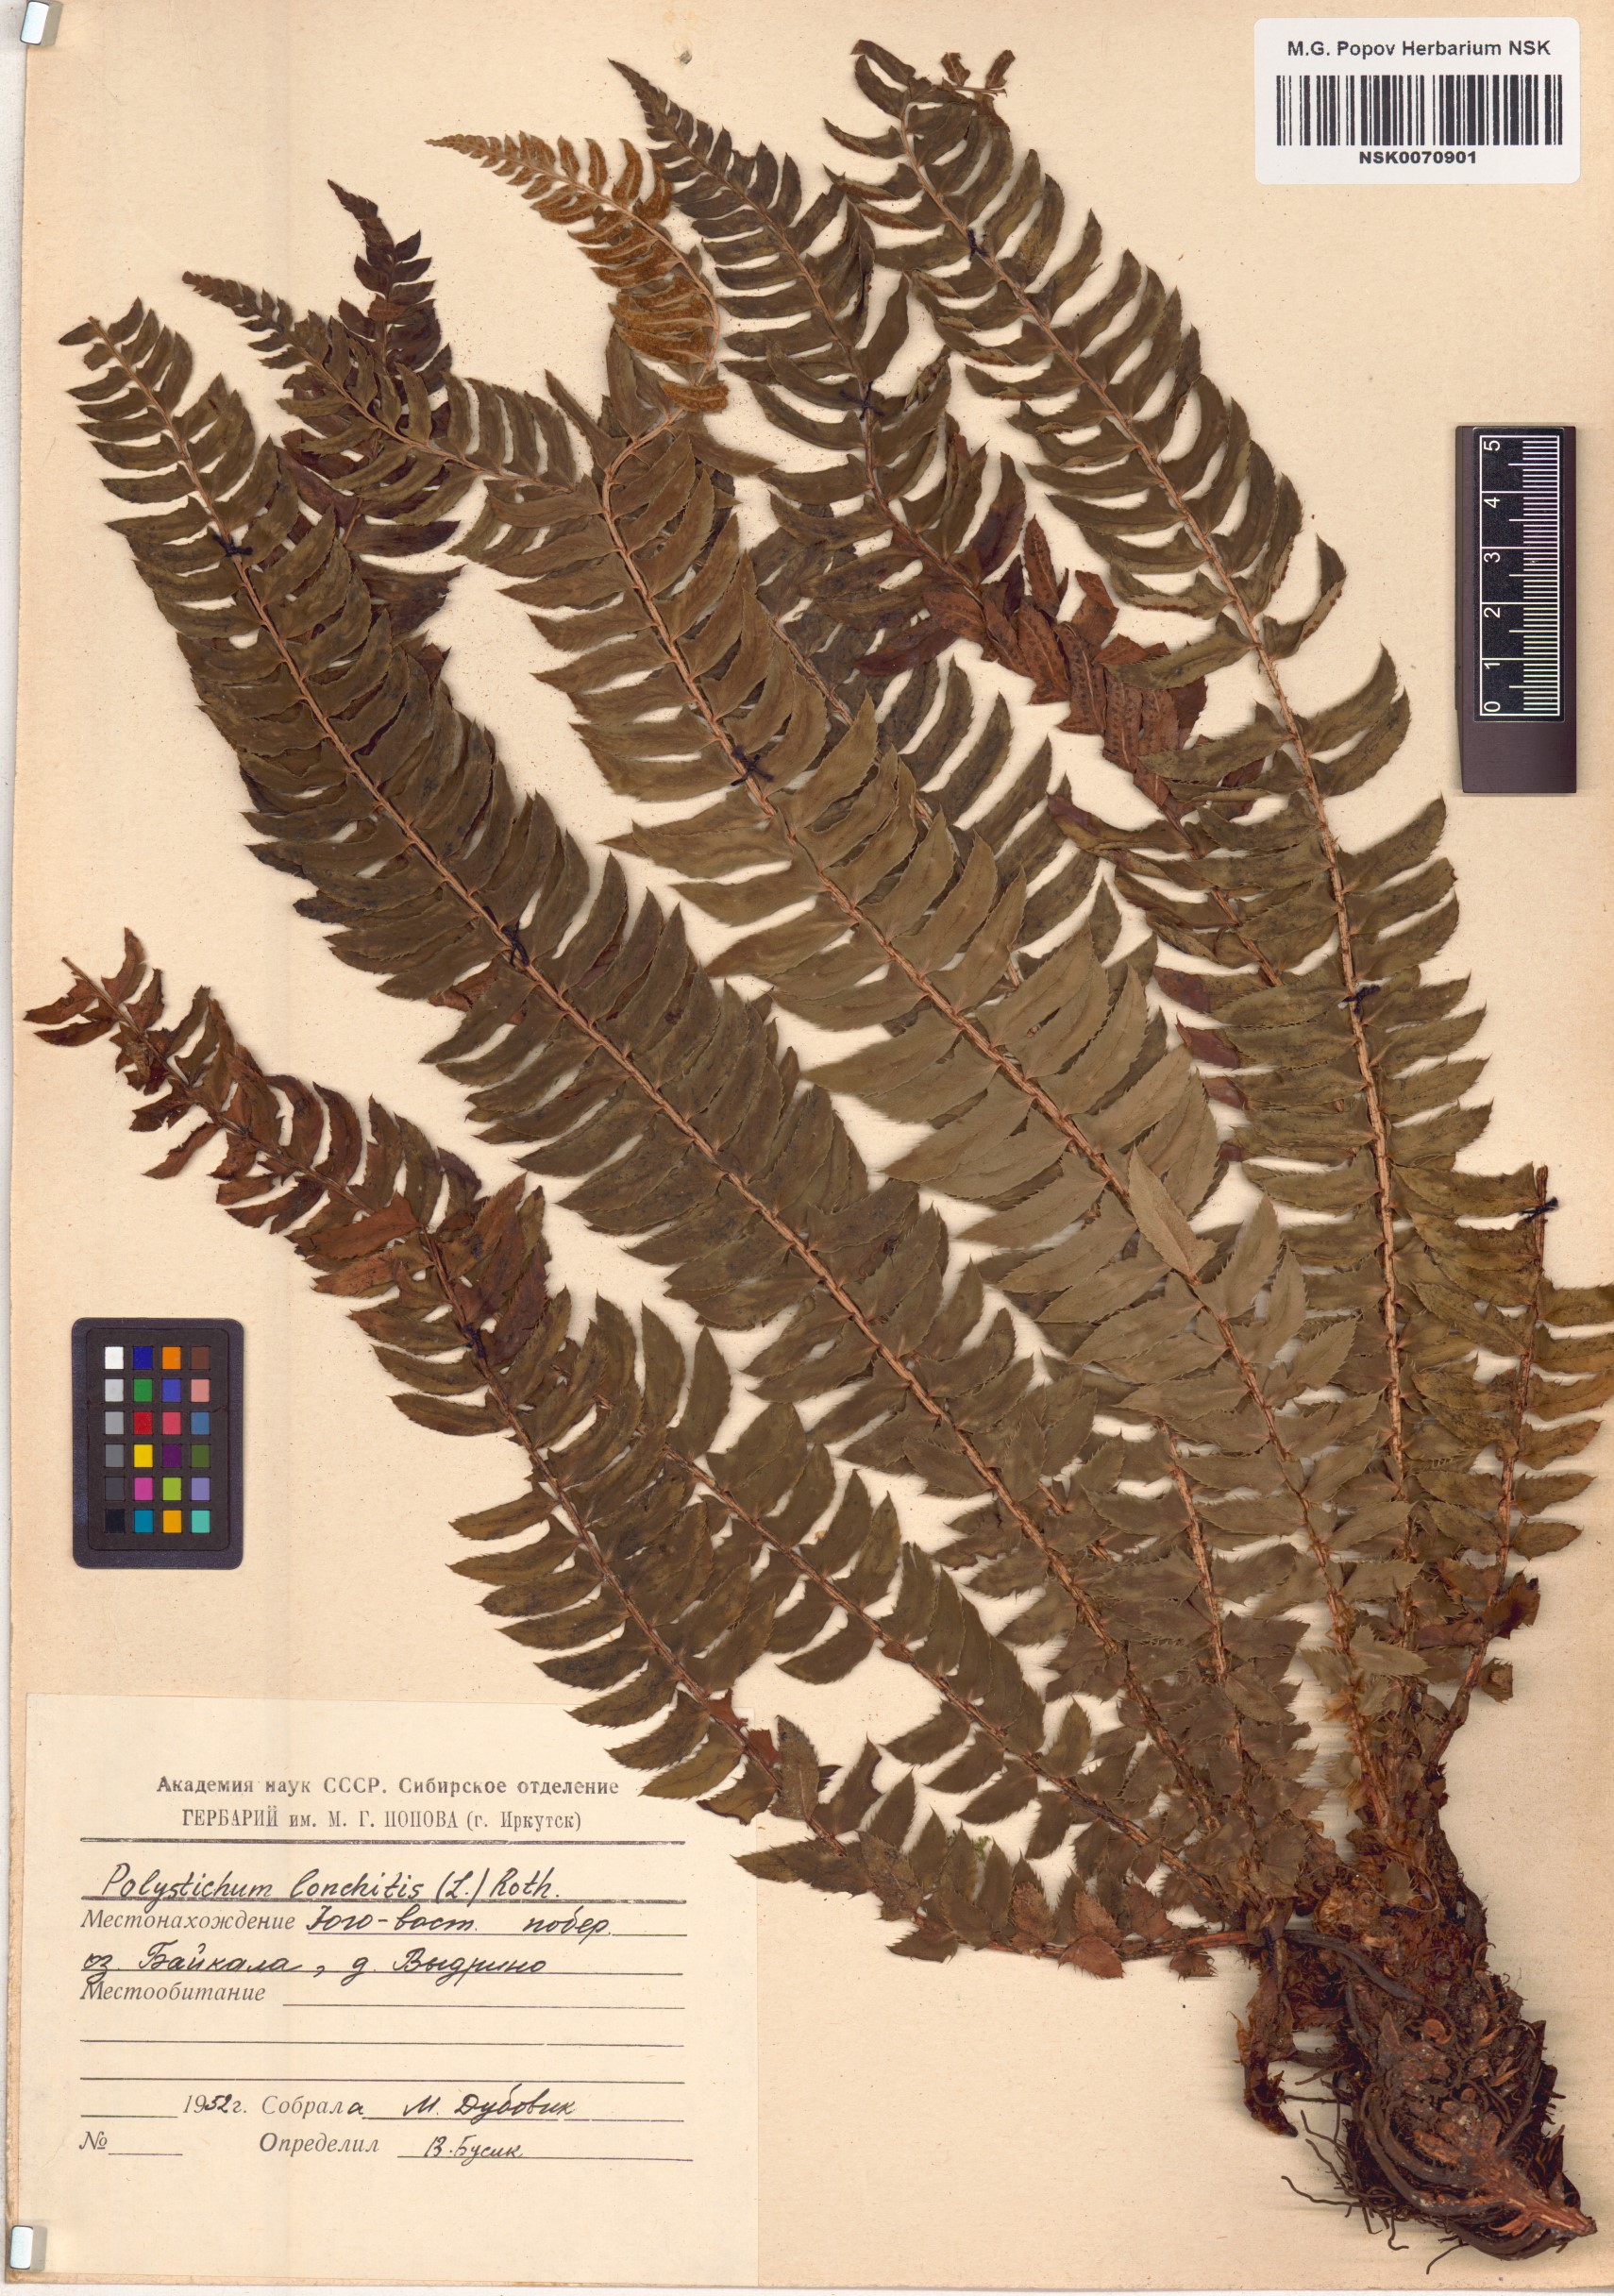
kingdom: Plantae
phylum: Tracheophyta
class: Polypodiopsida
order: Polypodiales
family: Dryopteridaceae
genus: Polystichum
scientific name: Polystichum lonchitis
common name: Holly fern
